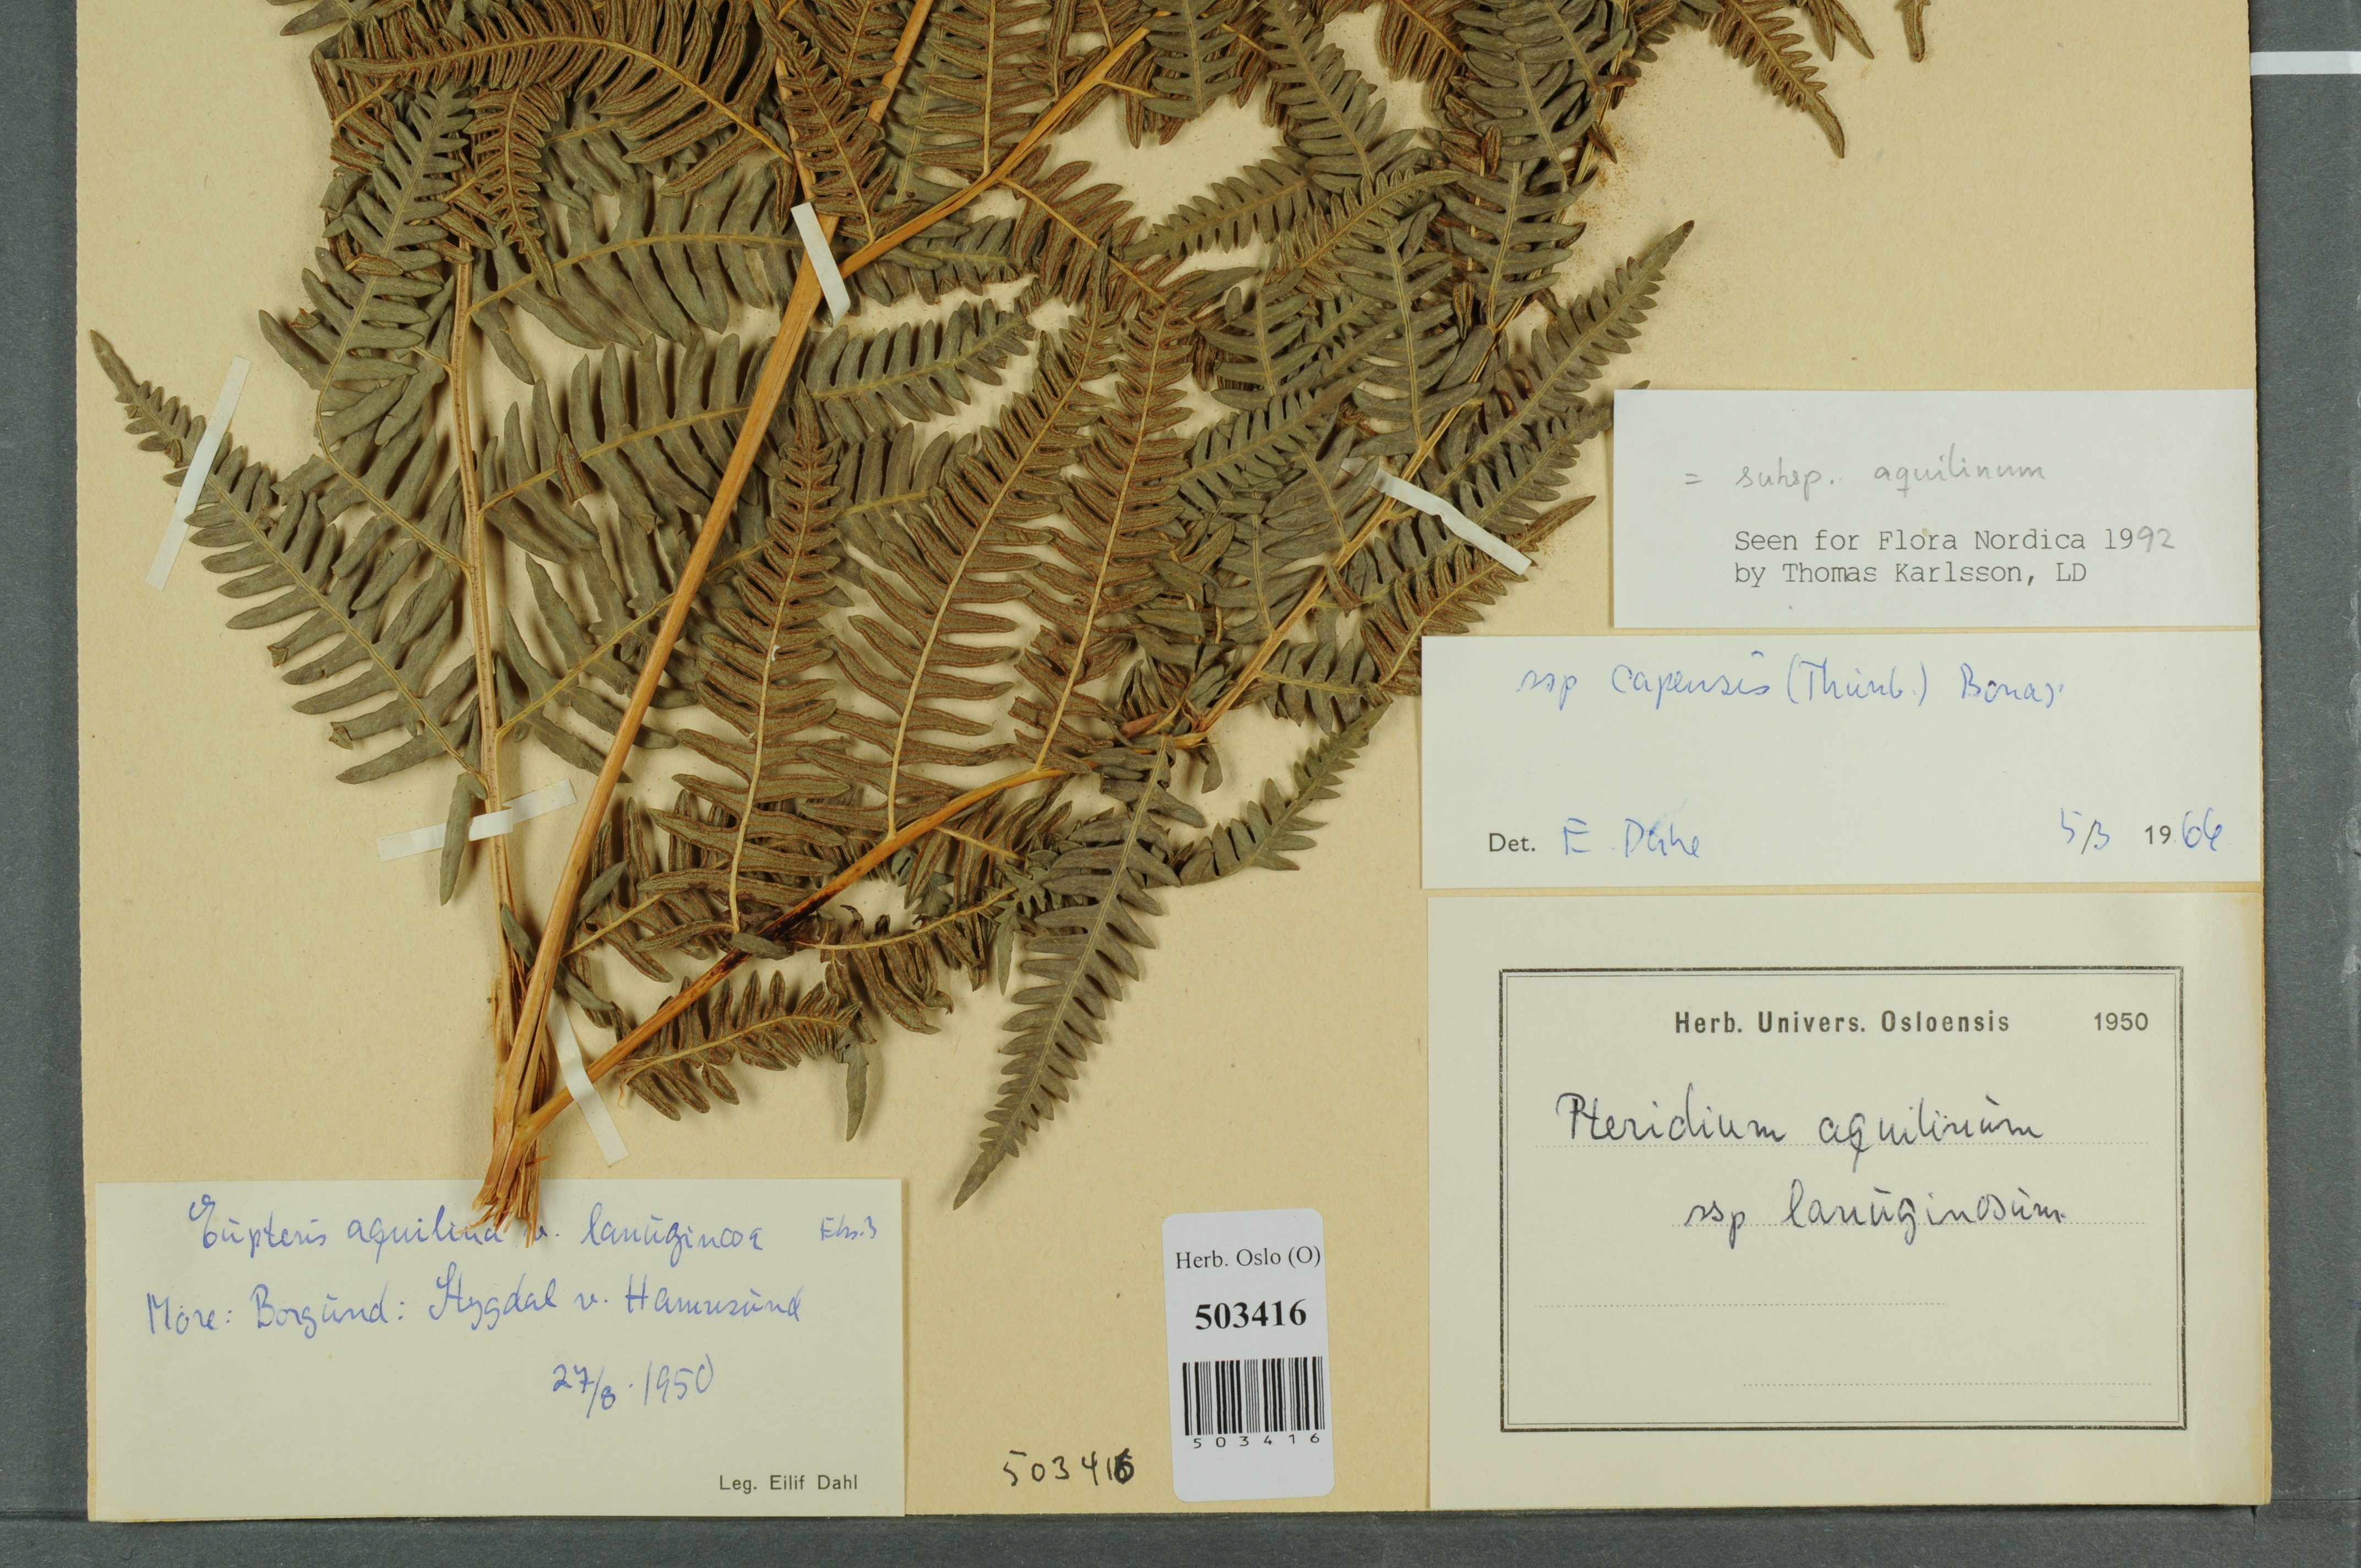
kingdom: Plantae
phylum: Tracheophyta
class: Polypodiopsida
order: Polypodiales
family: Dennstaedtiaceae
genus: Pteridium
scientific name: Pteridium aquilinum
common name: Bracken
